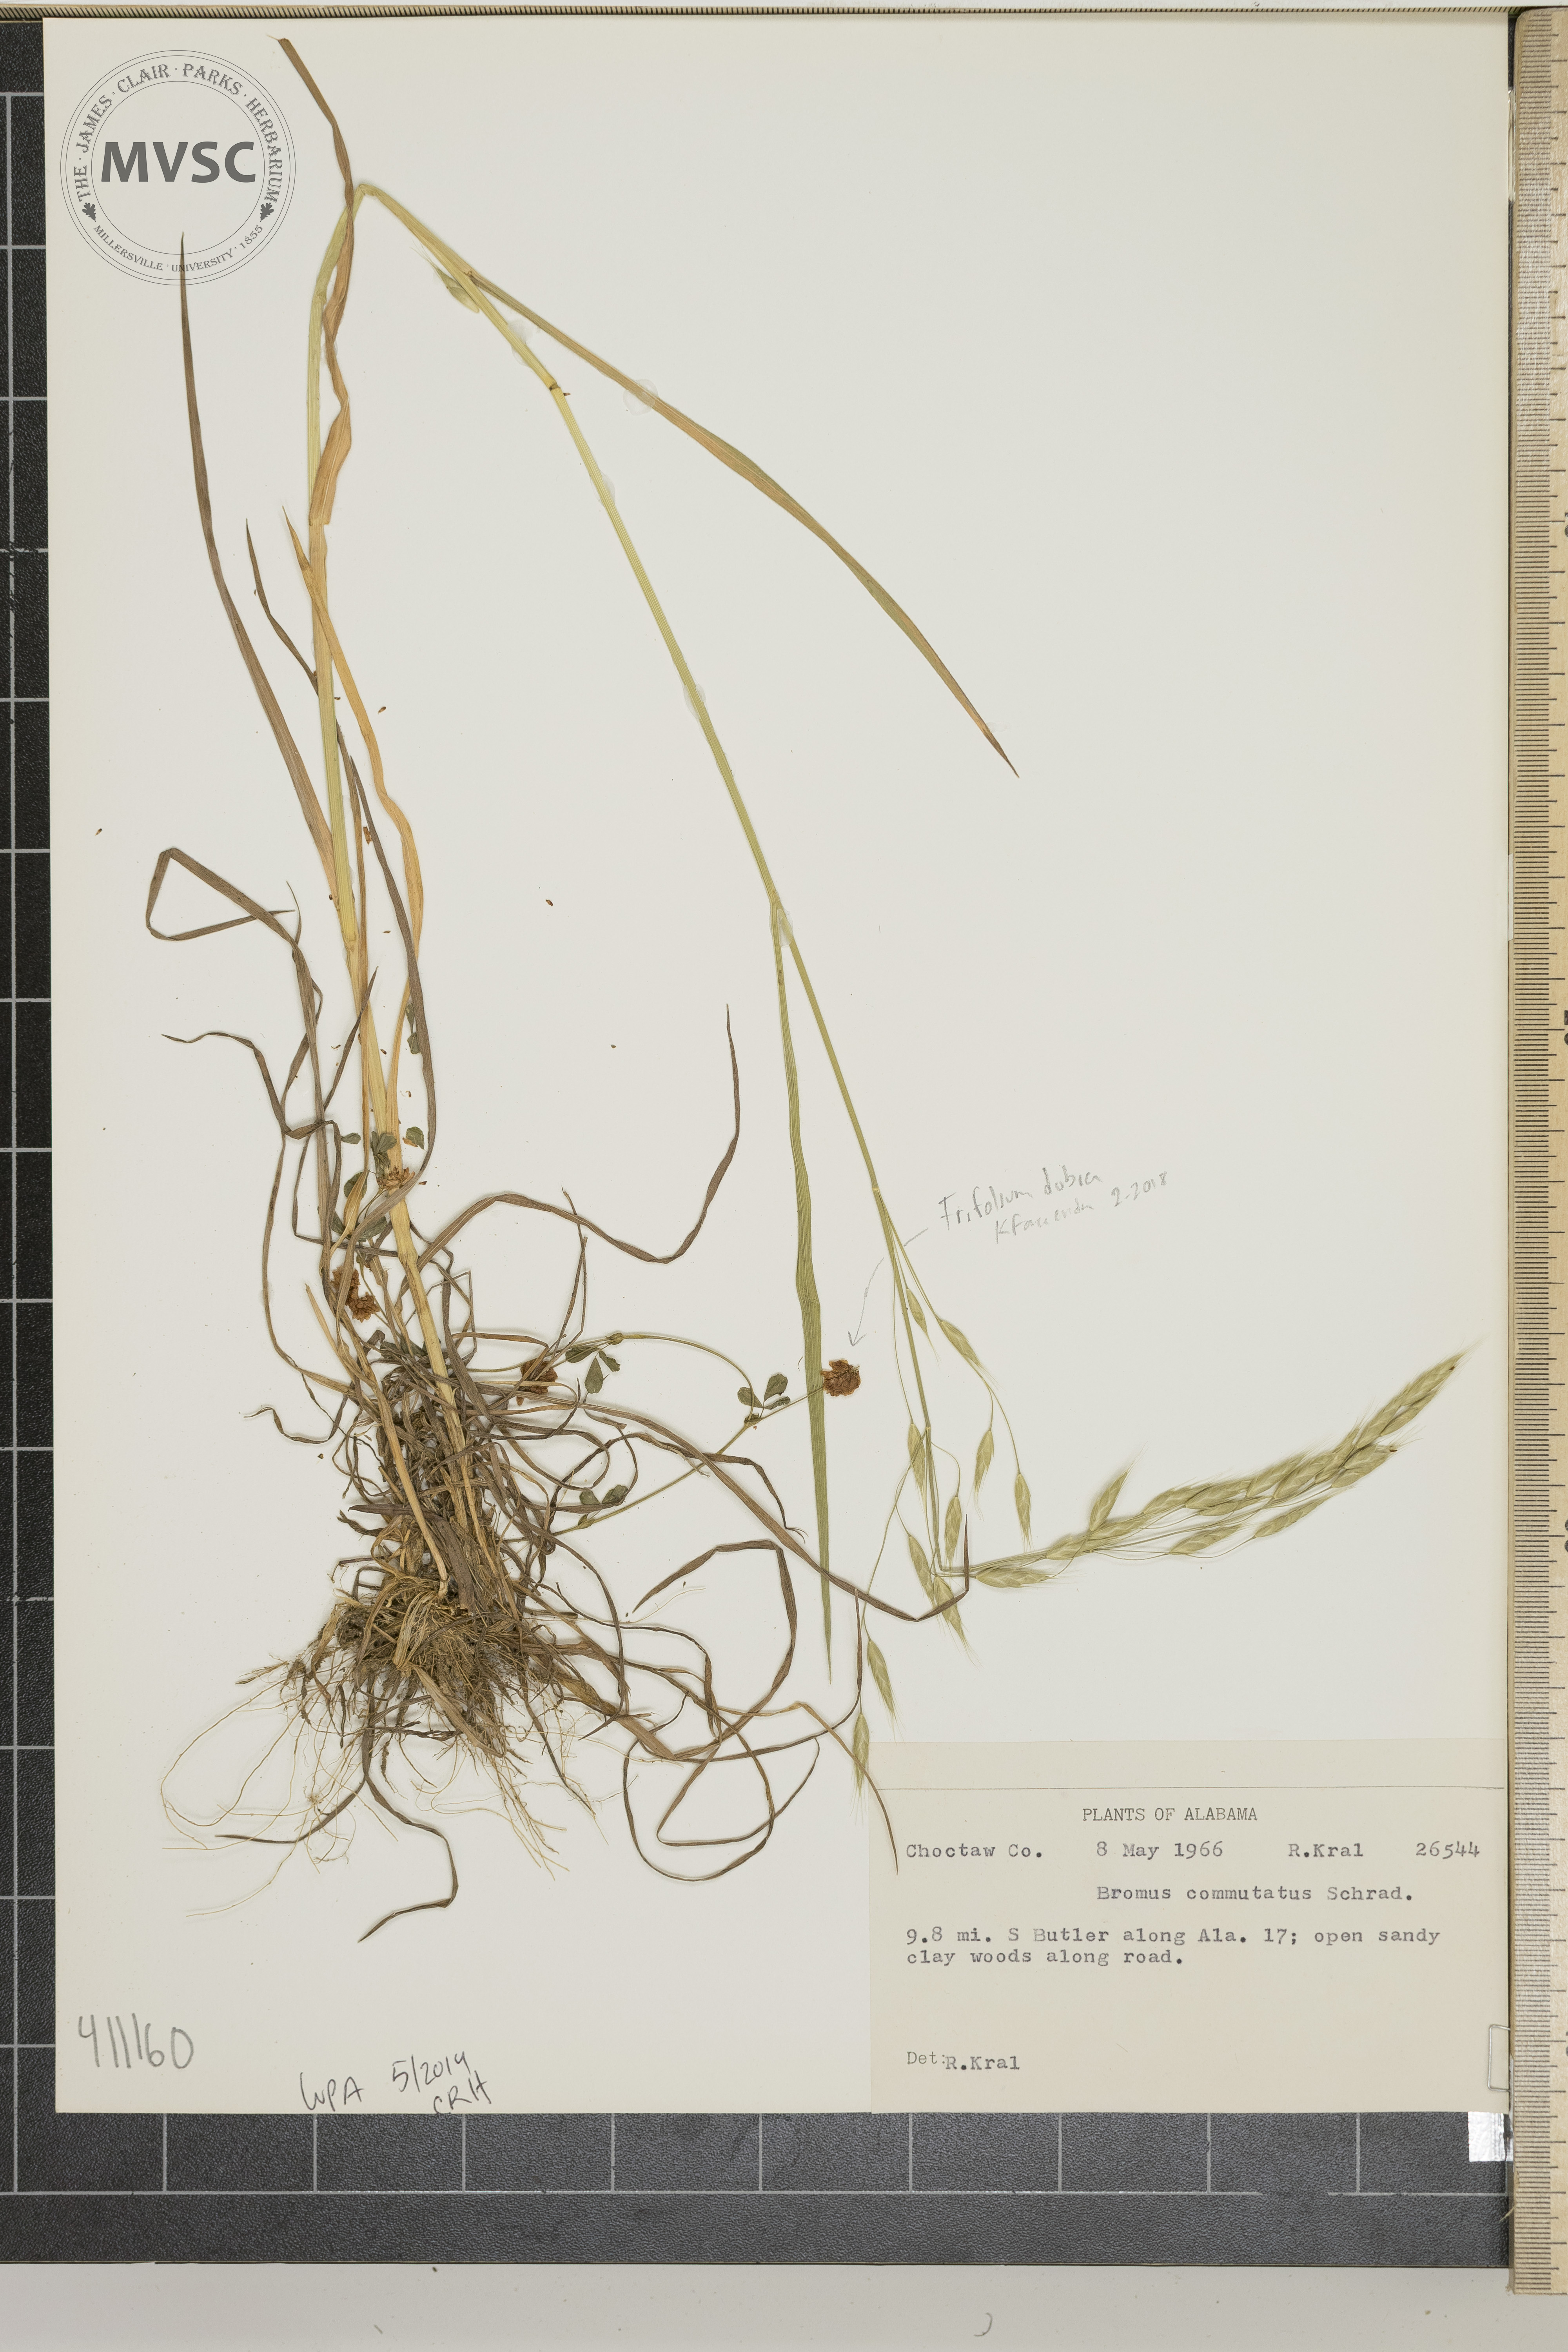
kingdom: Plantae
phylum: Tracheophyta
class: Liliopsida
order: Poales
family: Poaceae
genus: Bromus
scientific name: Bromus commutatus
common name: Meadow brome
